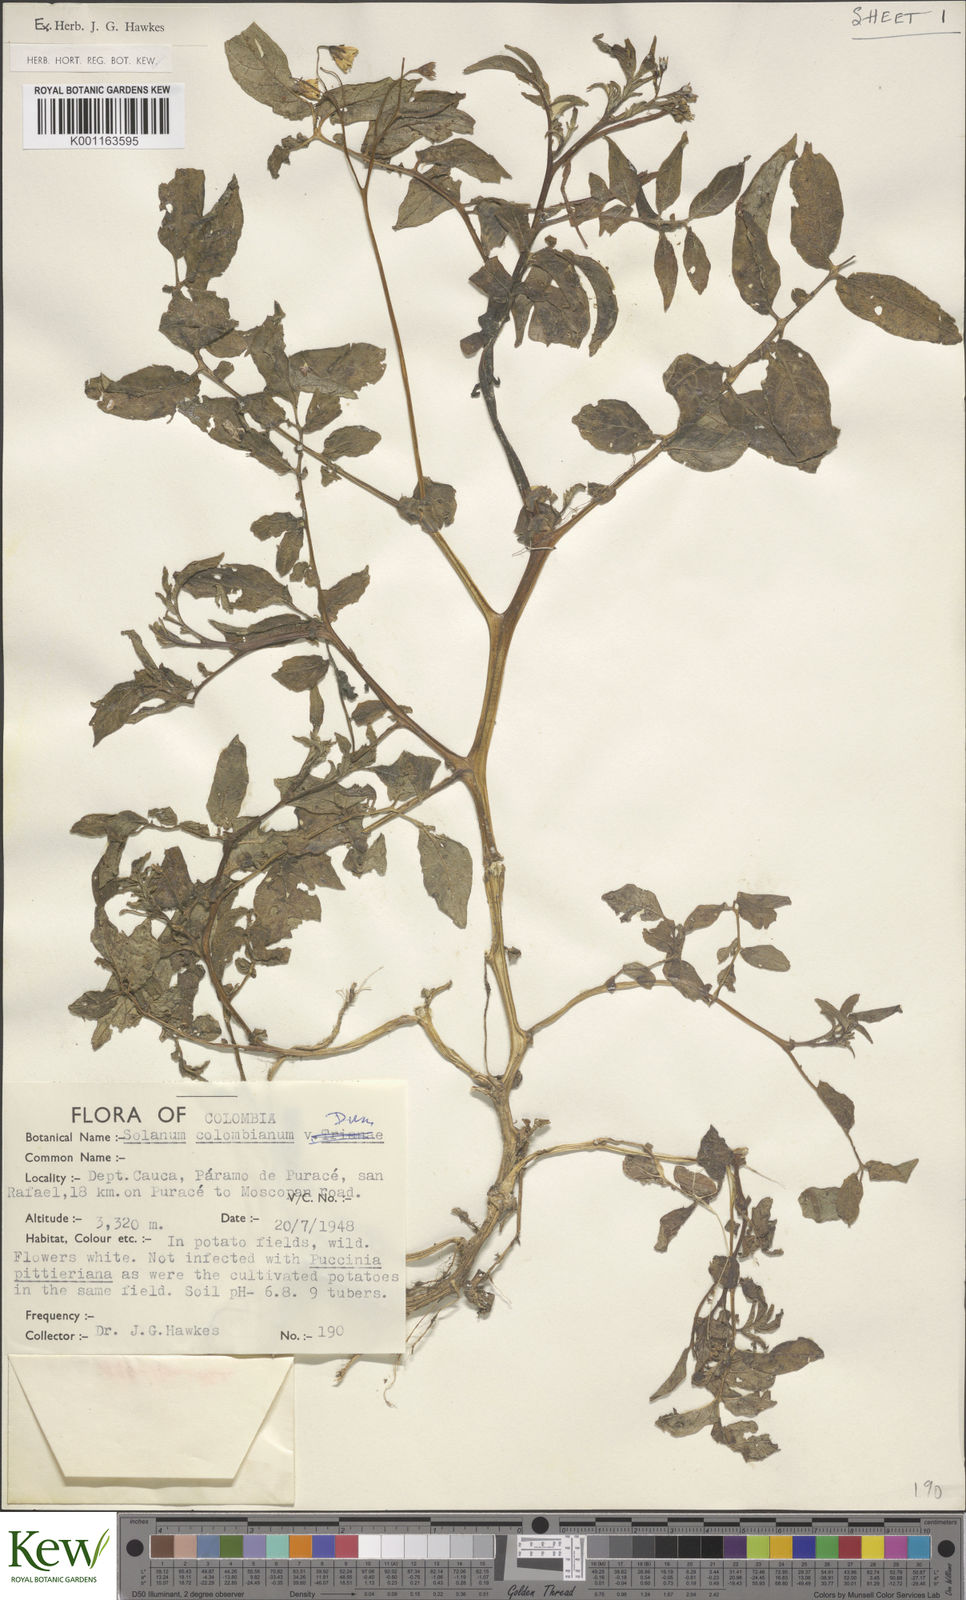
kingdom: Plantae
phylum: Tracheophyta
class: Magnoliopsida
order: Solanales
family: Solanaceae
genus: Solanum
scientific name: Solanum colombianum
